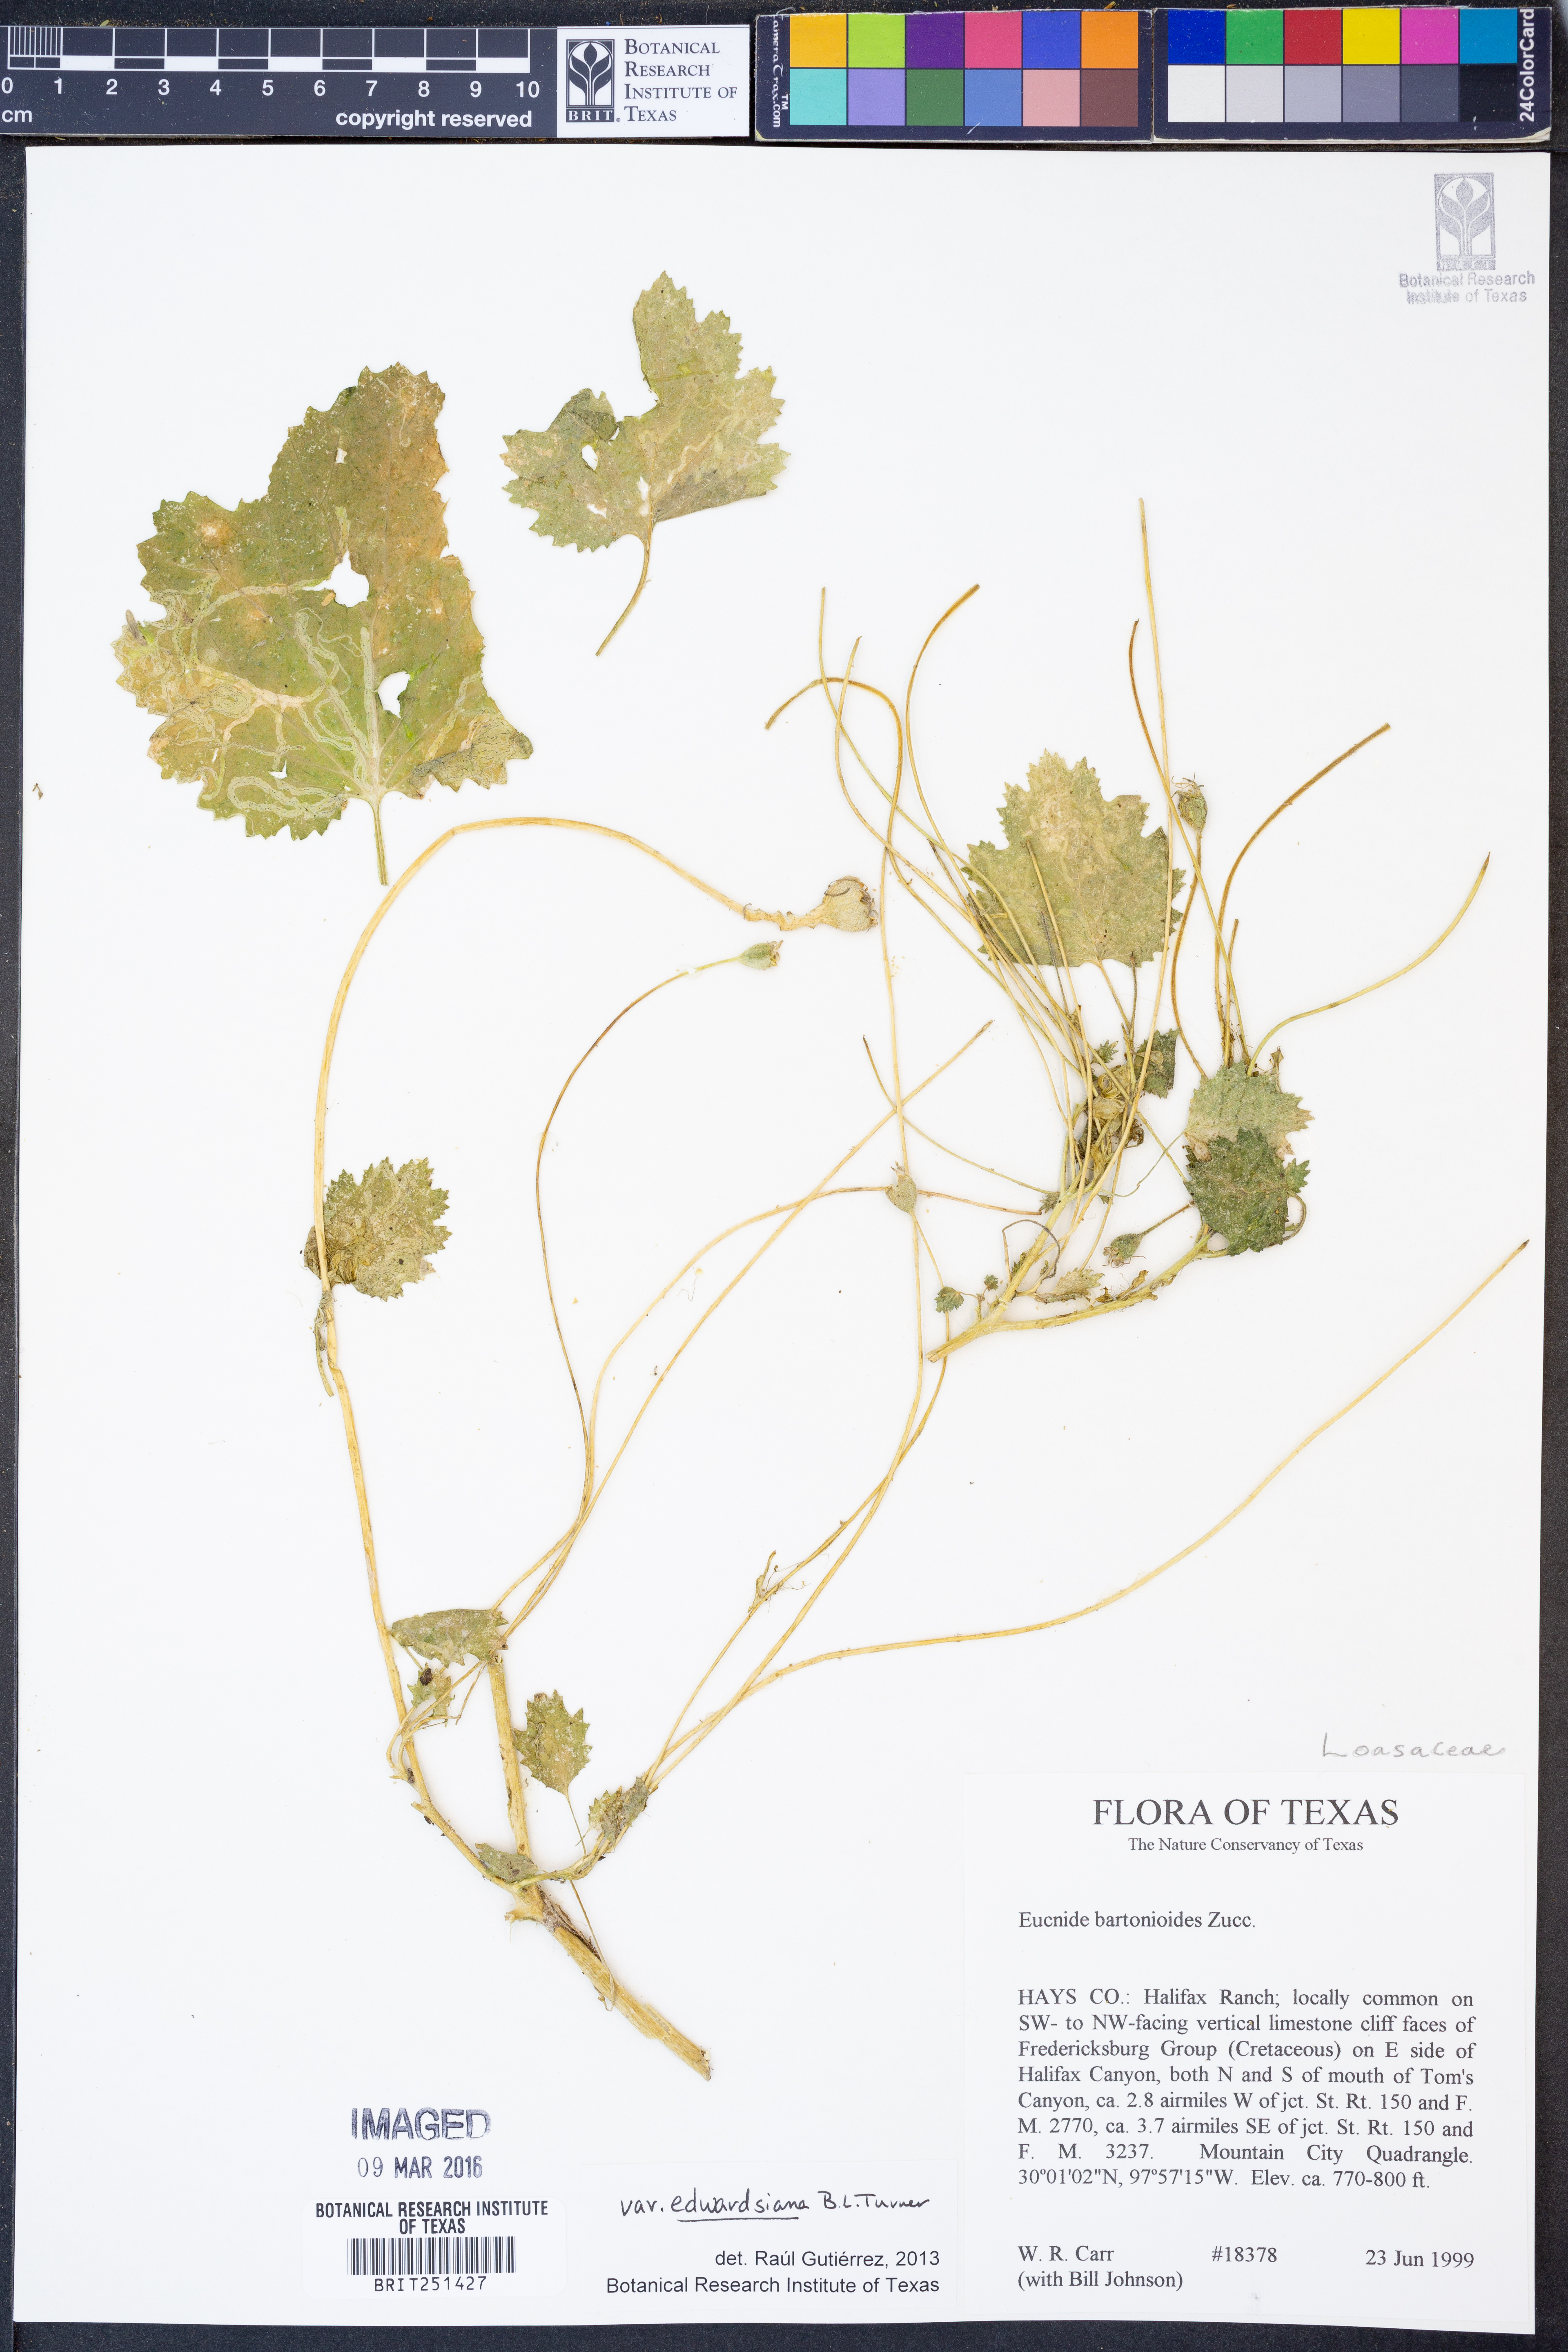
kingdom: Plantae
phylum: Tracheophyta
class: Magnoliopsida
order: Cornales
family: Loasaceae
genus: Eucnide
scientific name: Eucnide bartonioides
